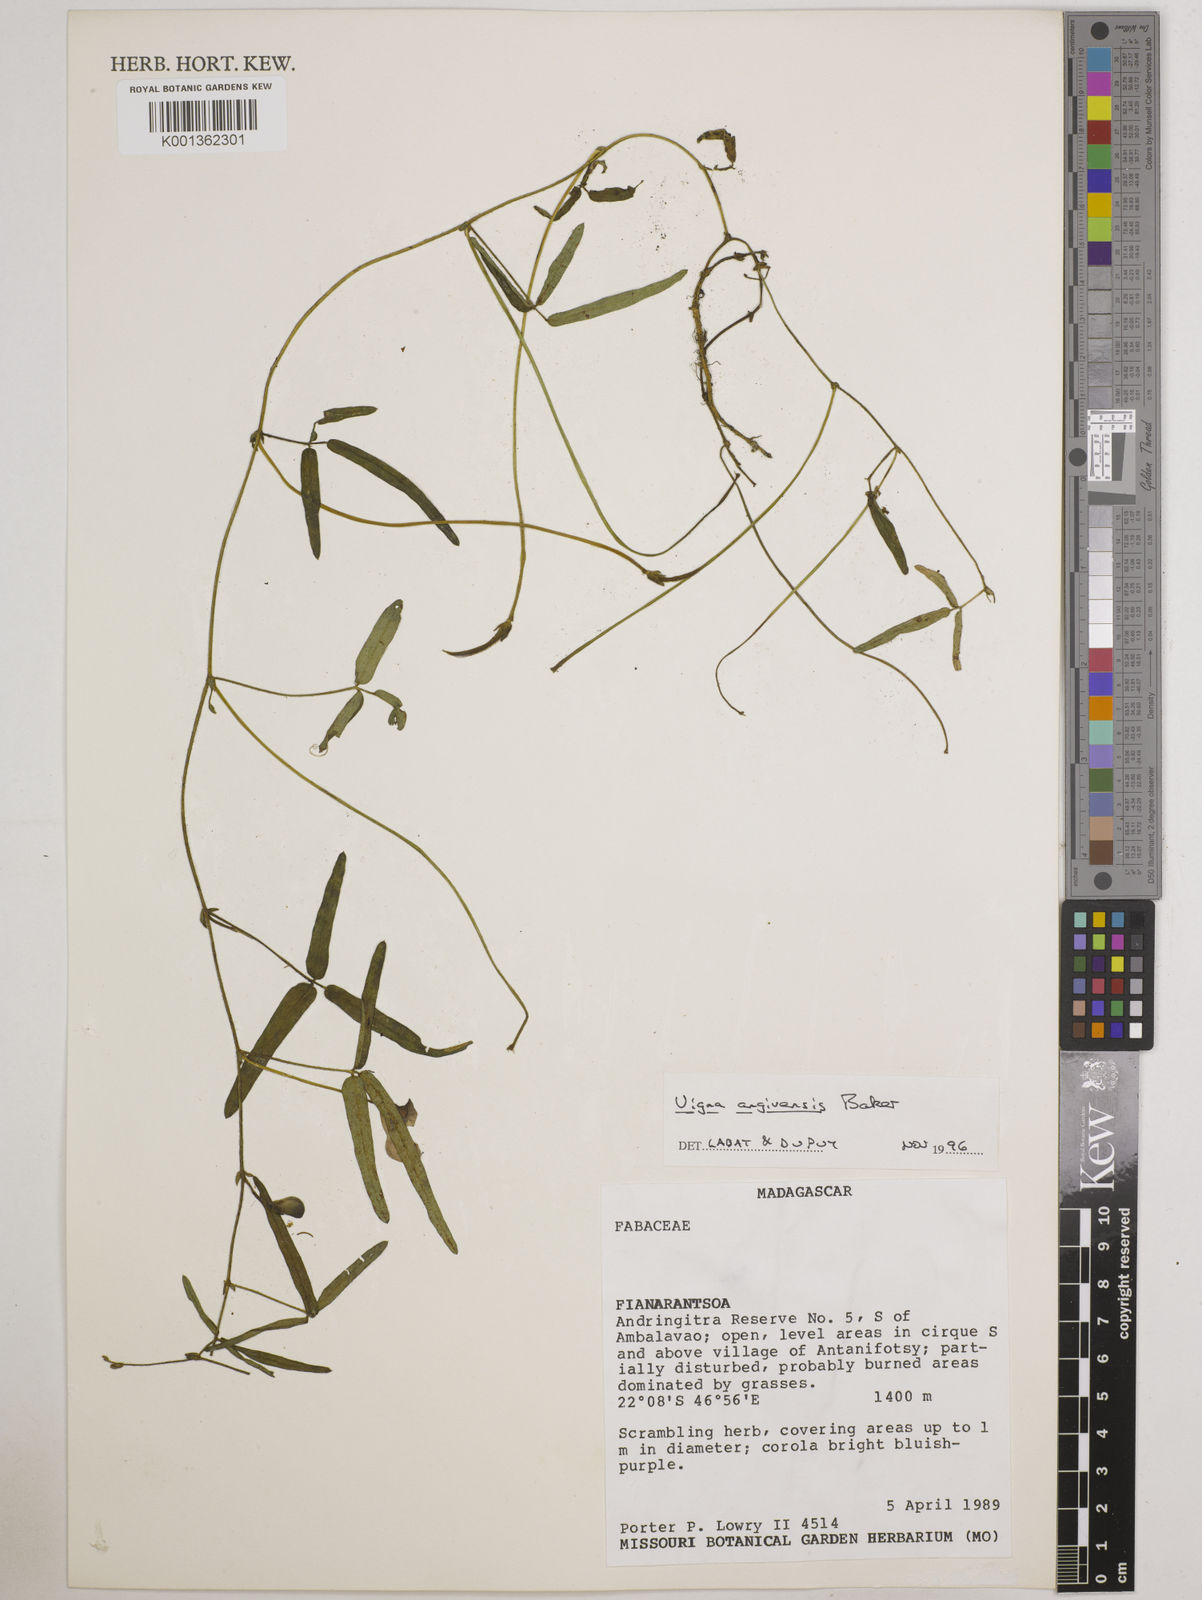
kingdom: Plantae
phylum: Tracheophyta
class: Magnoliopsida
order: Fabales
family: Fabaceae
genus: Vigna
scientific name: Vigna angivensis
